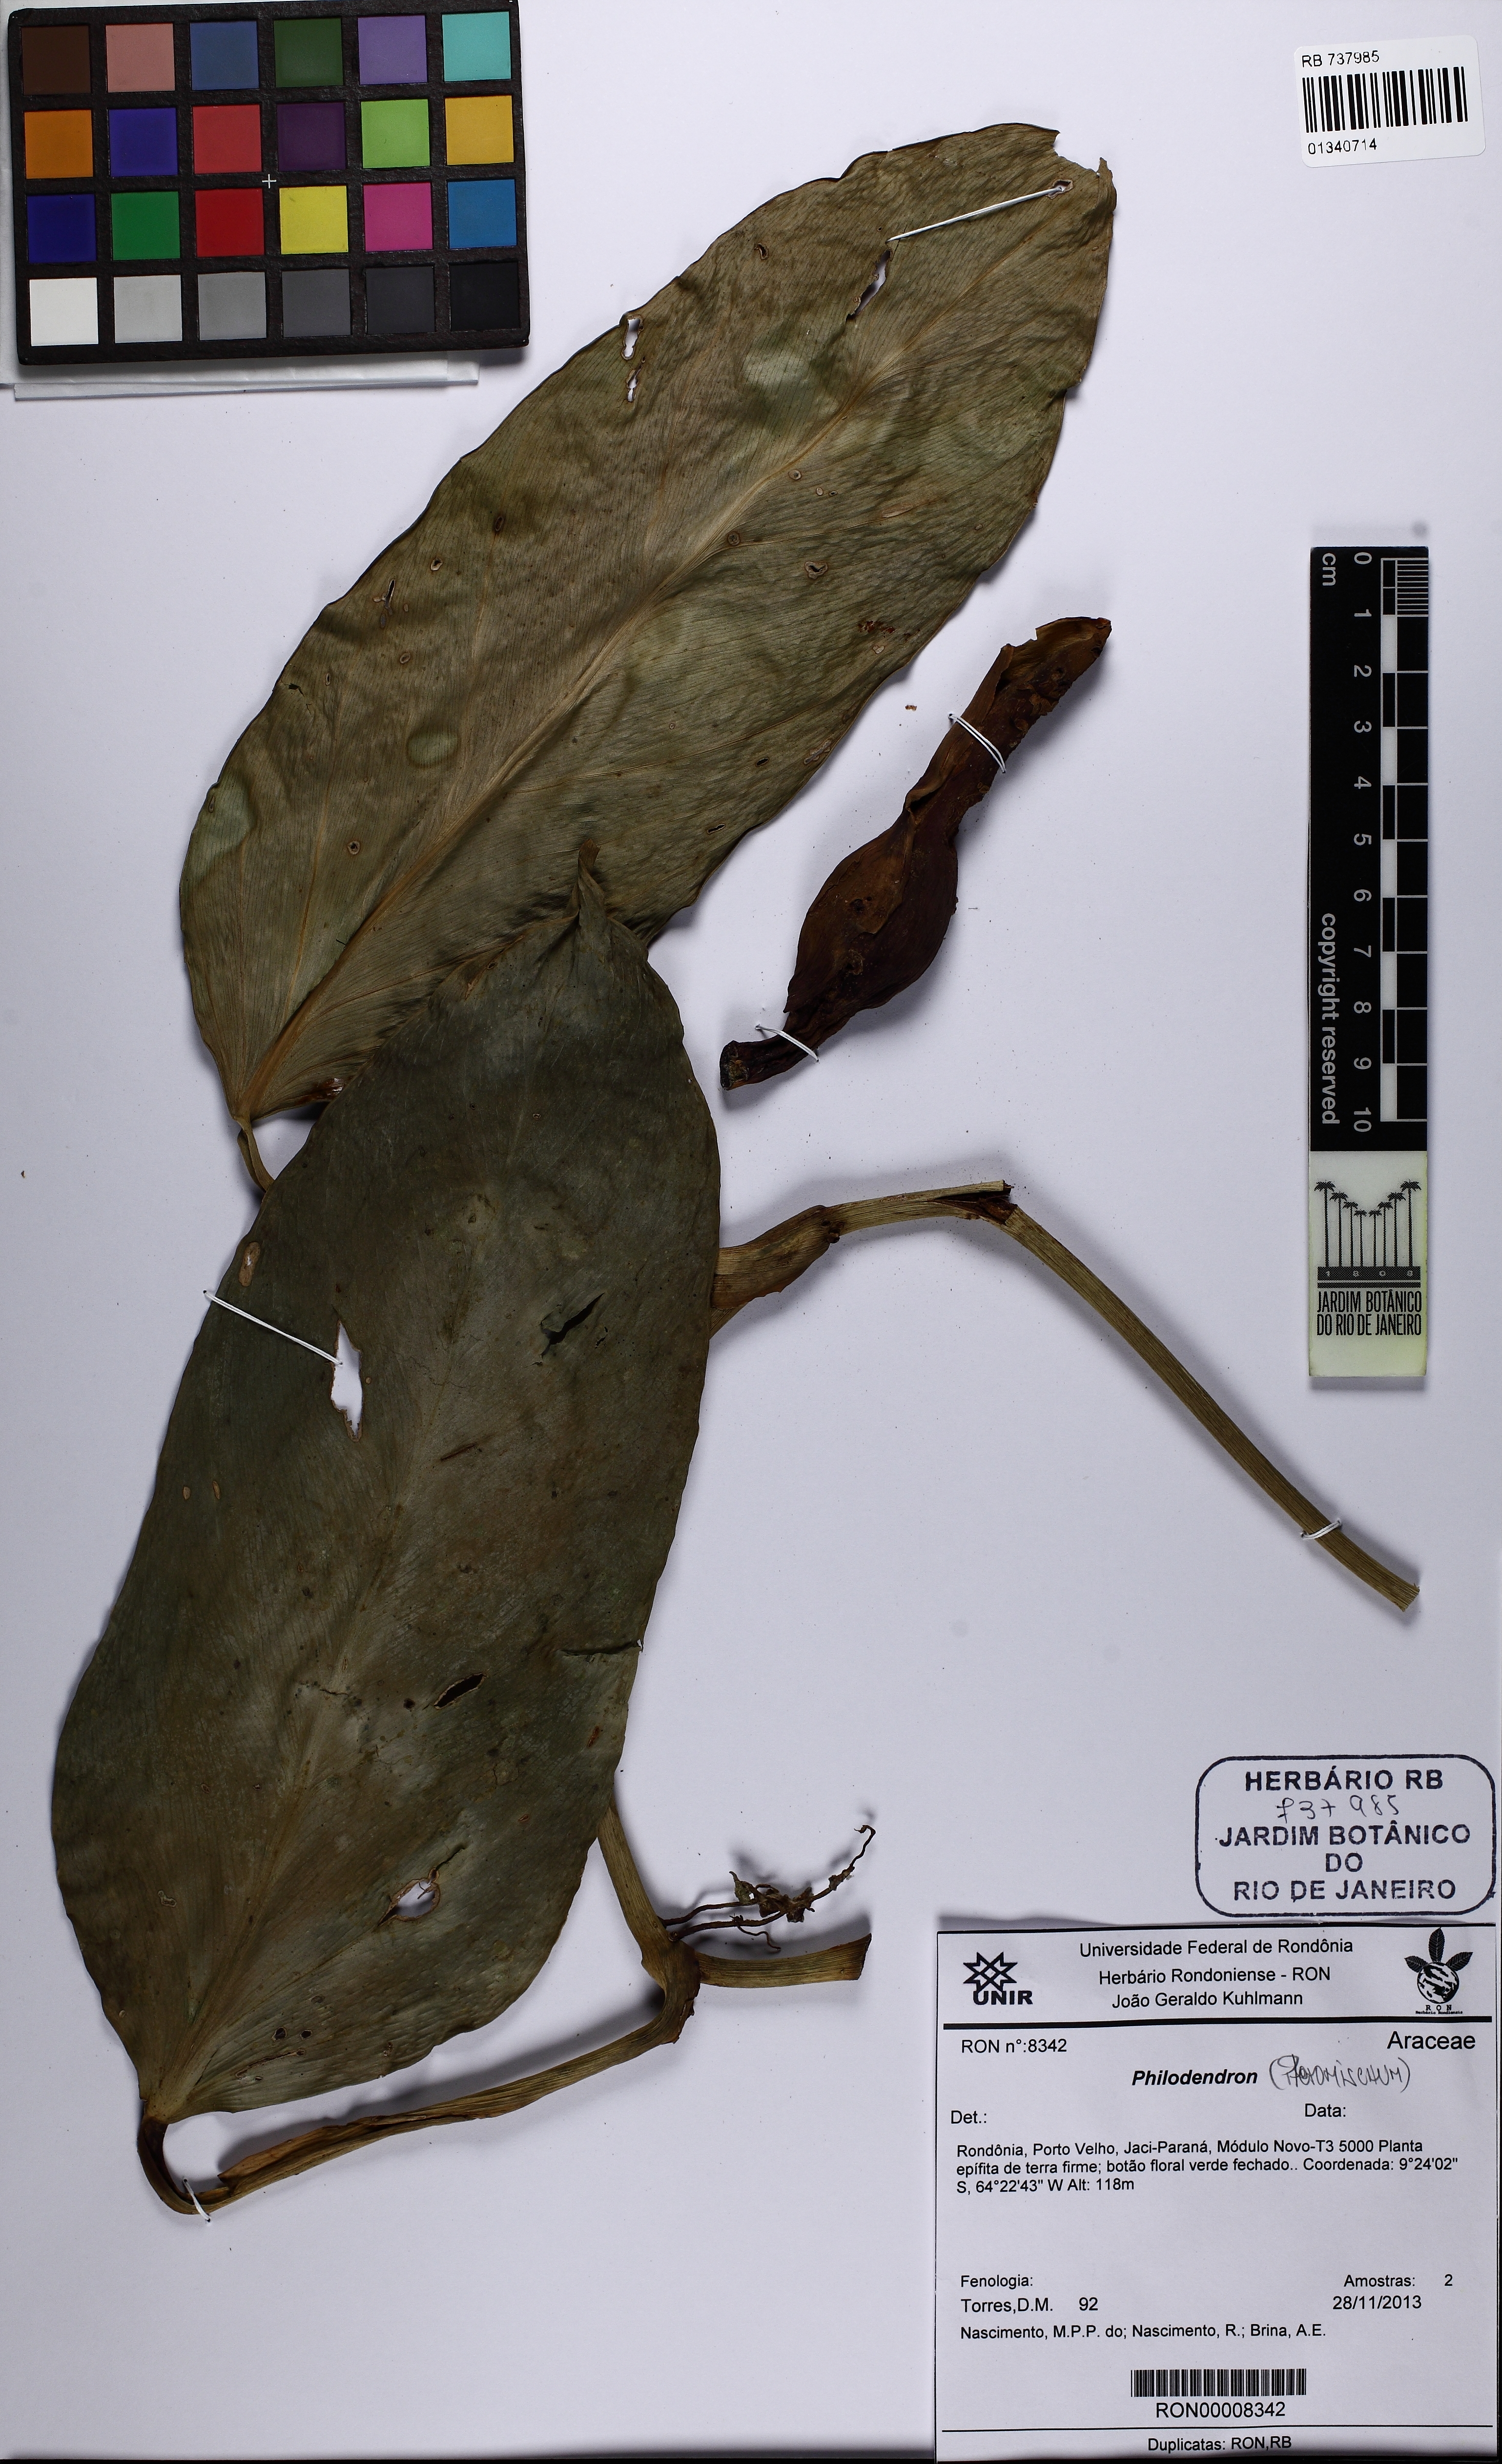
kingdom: Plantae
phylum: Tracheophyta
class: Liliopsida
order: Alismatales
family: Araceae
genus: Philodendron
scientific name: Philodendron
